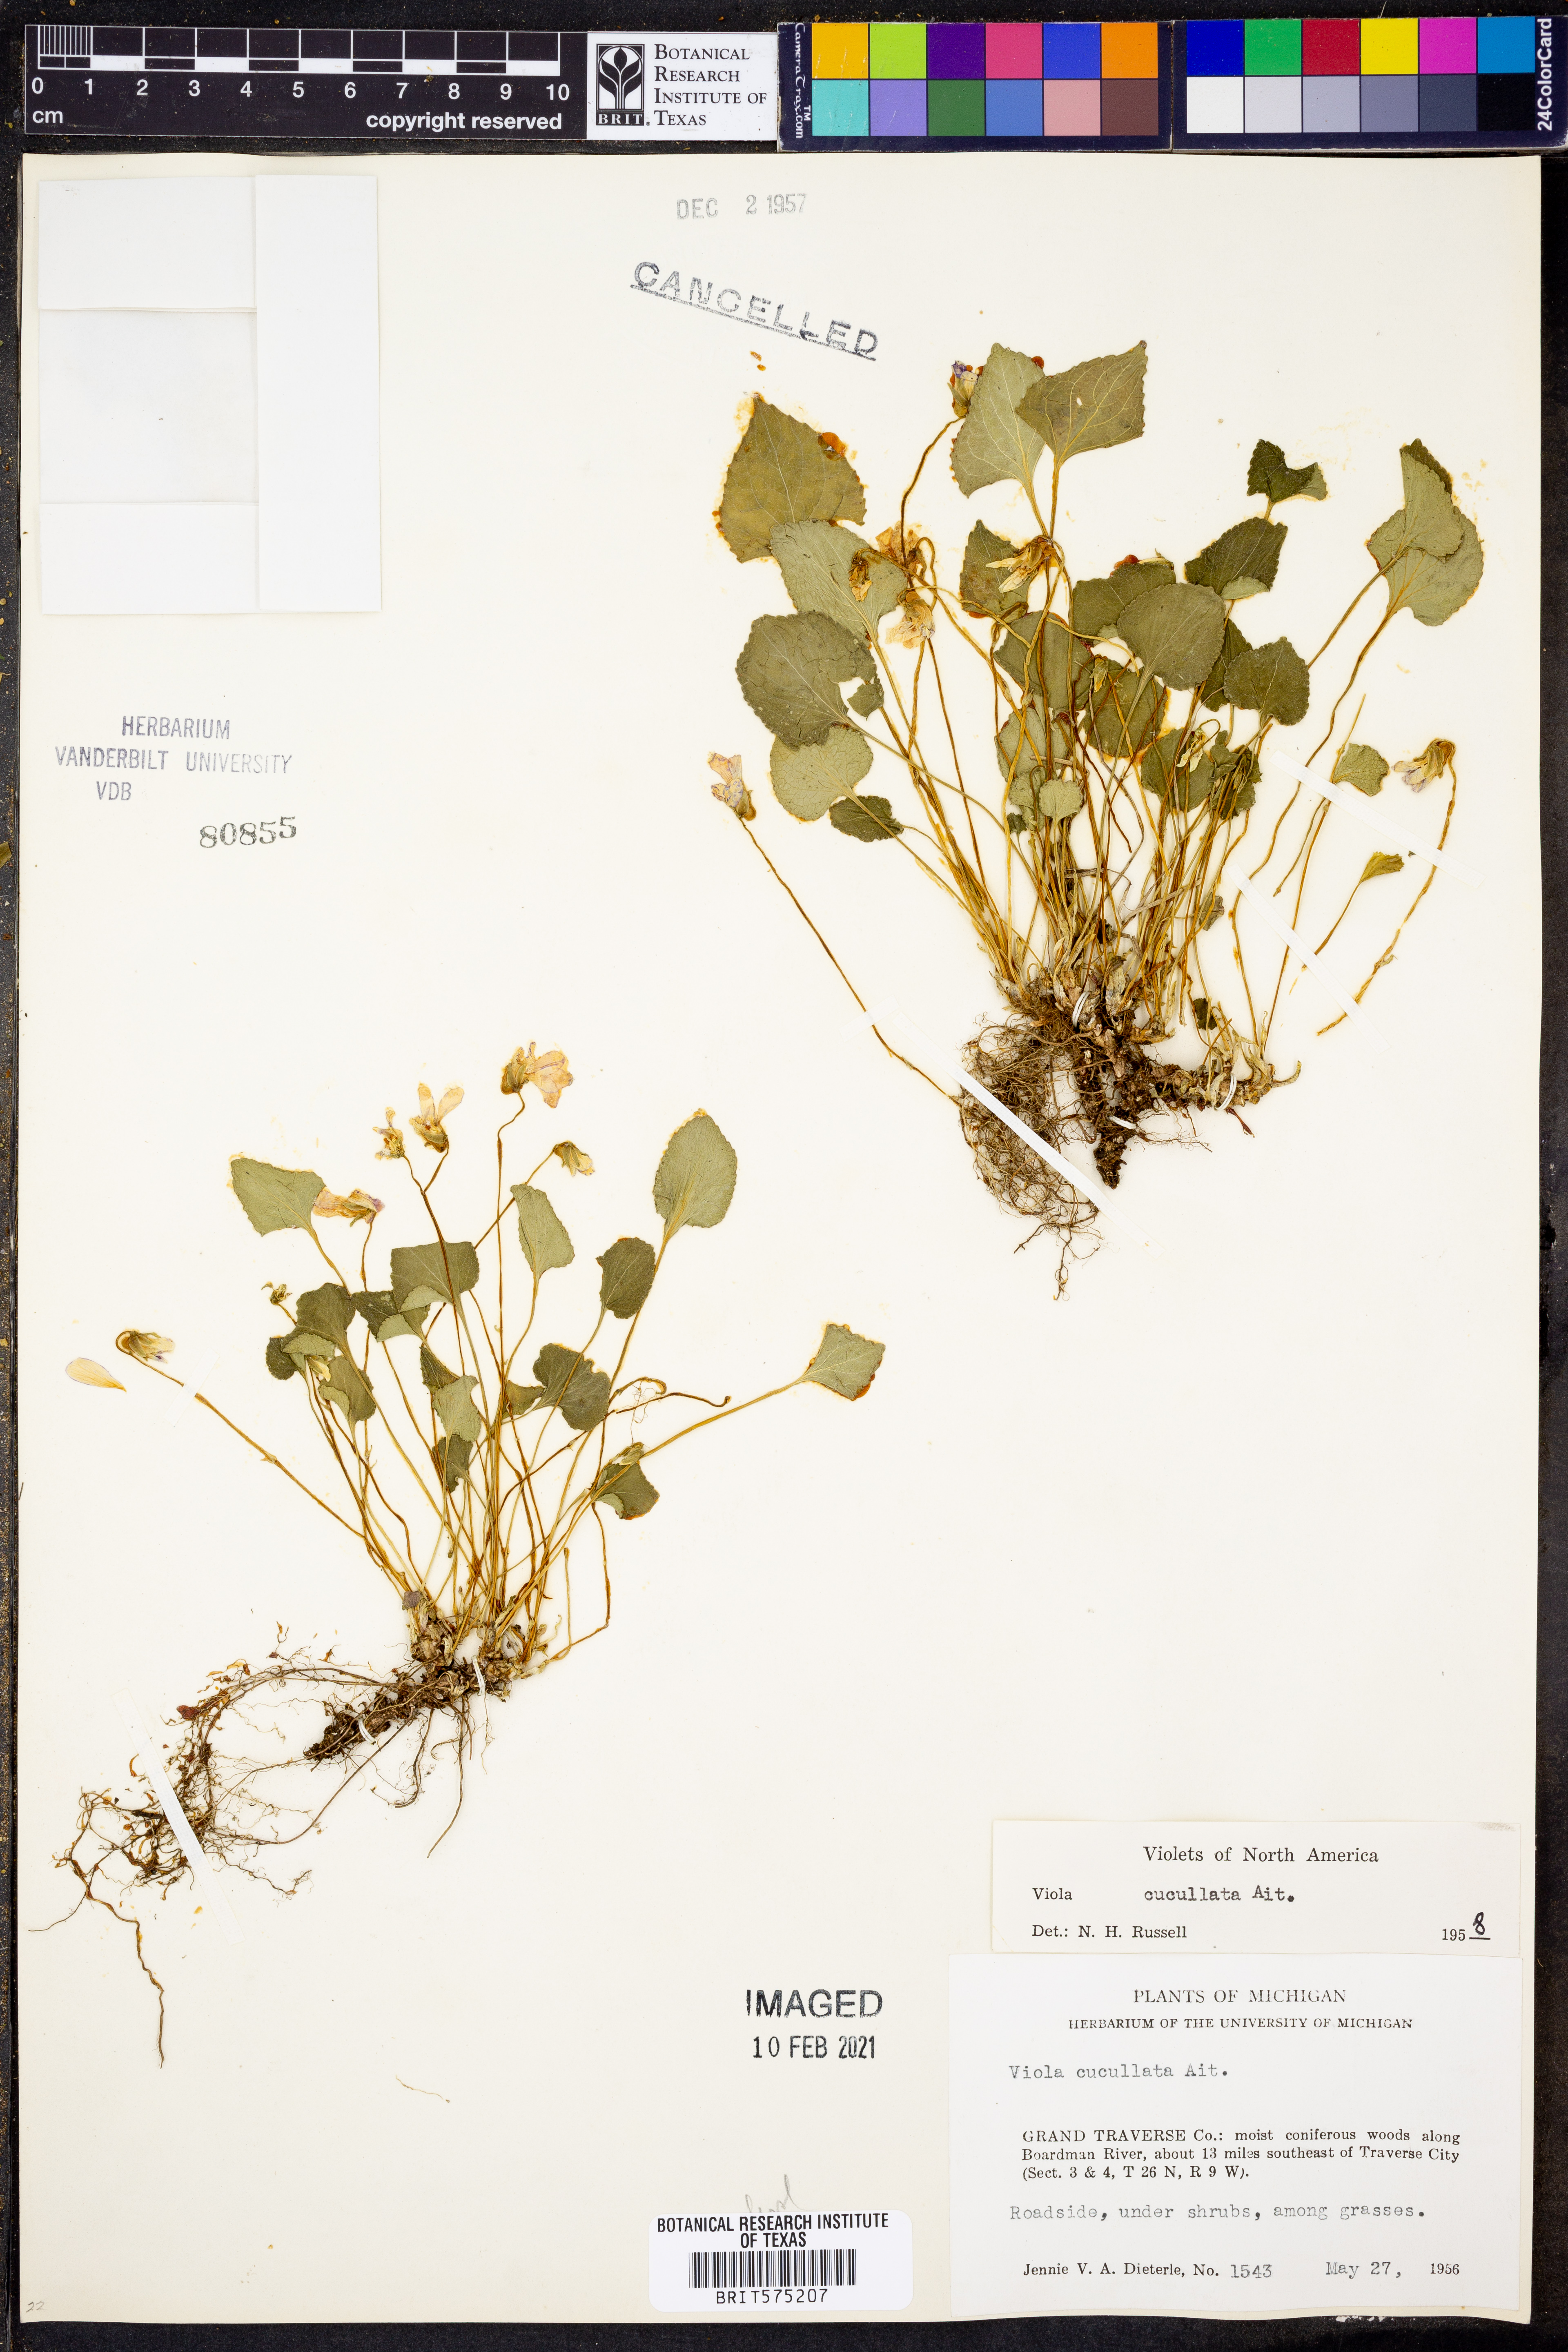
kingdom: Plantae
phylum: Tracheophyta
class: Magnoliopsida
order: Malpighiales
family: Violaceae
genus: Viola
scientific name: Viola cucullata
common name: Marsh blue violet
